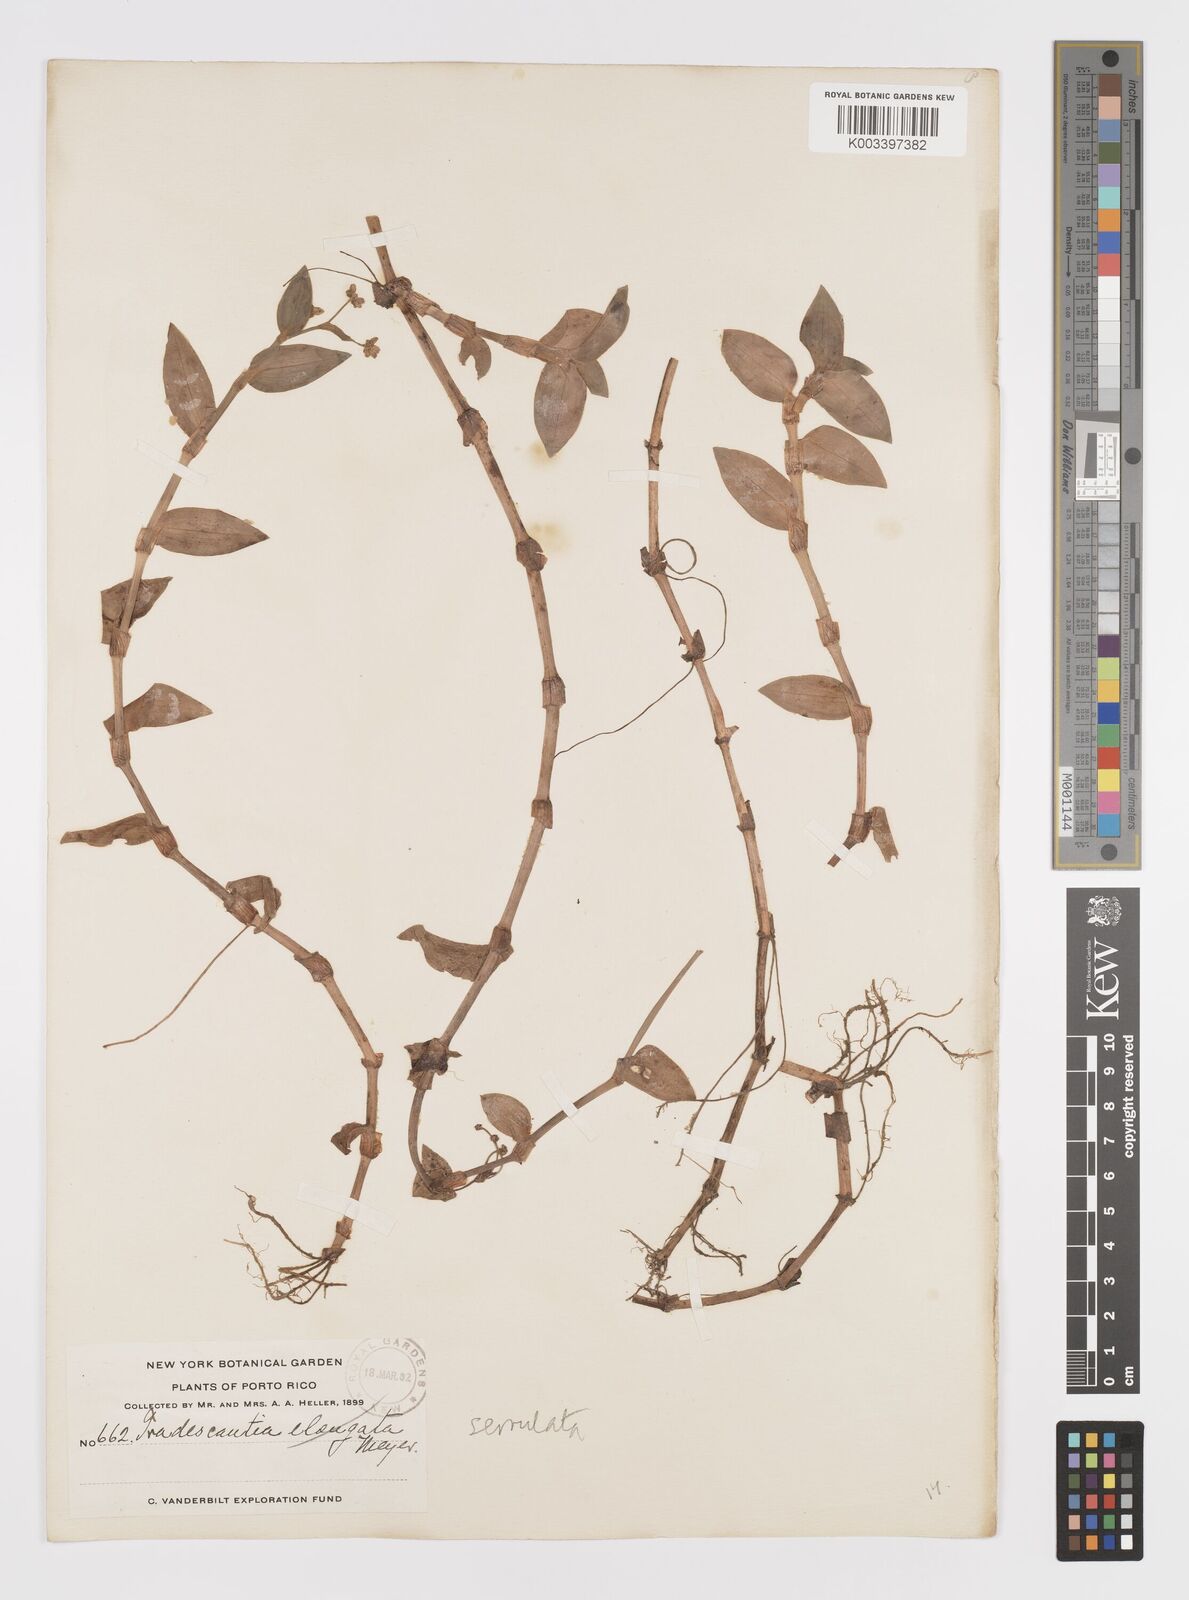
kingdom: Plantae
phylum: Tracheophyta
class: Liliopsida
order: Commelinales
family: Commelinaceae
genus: Callisia
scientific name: Callisia
